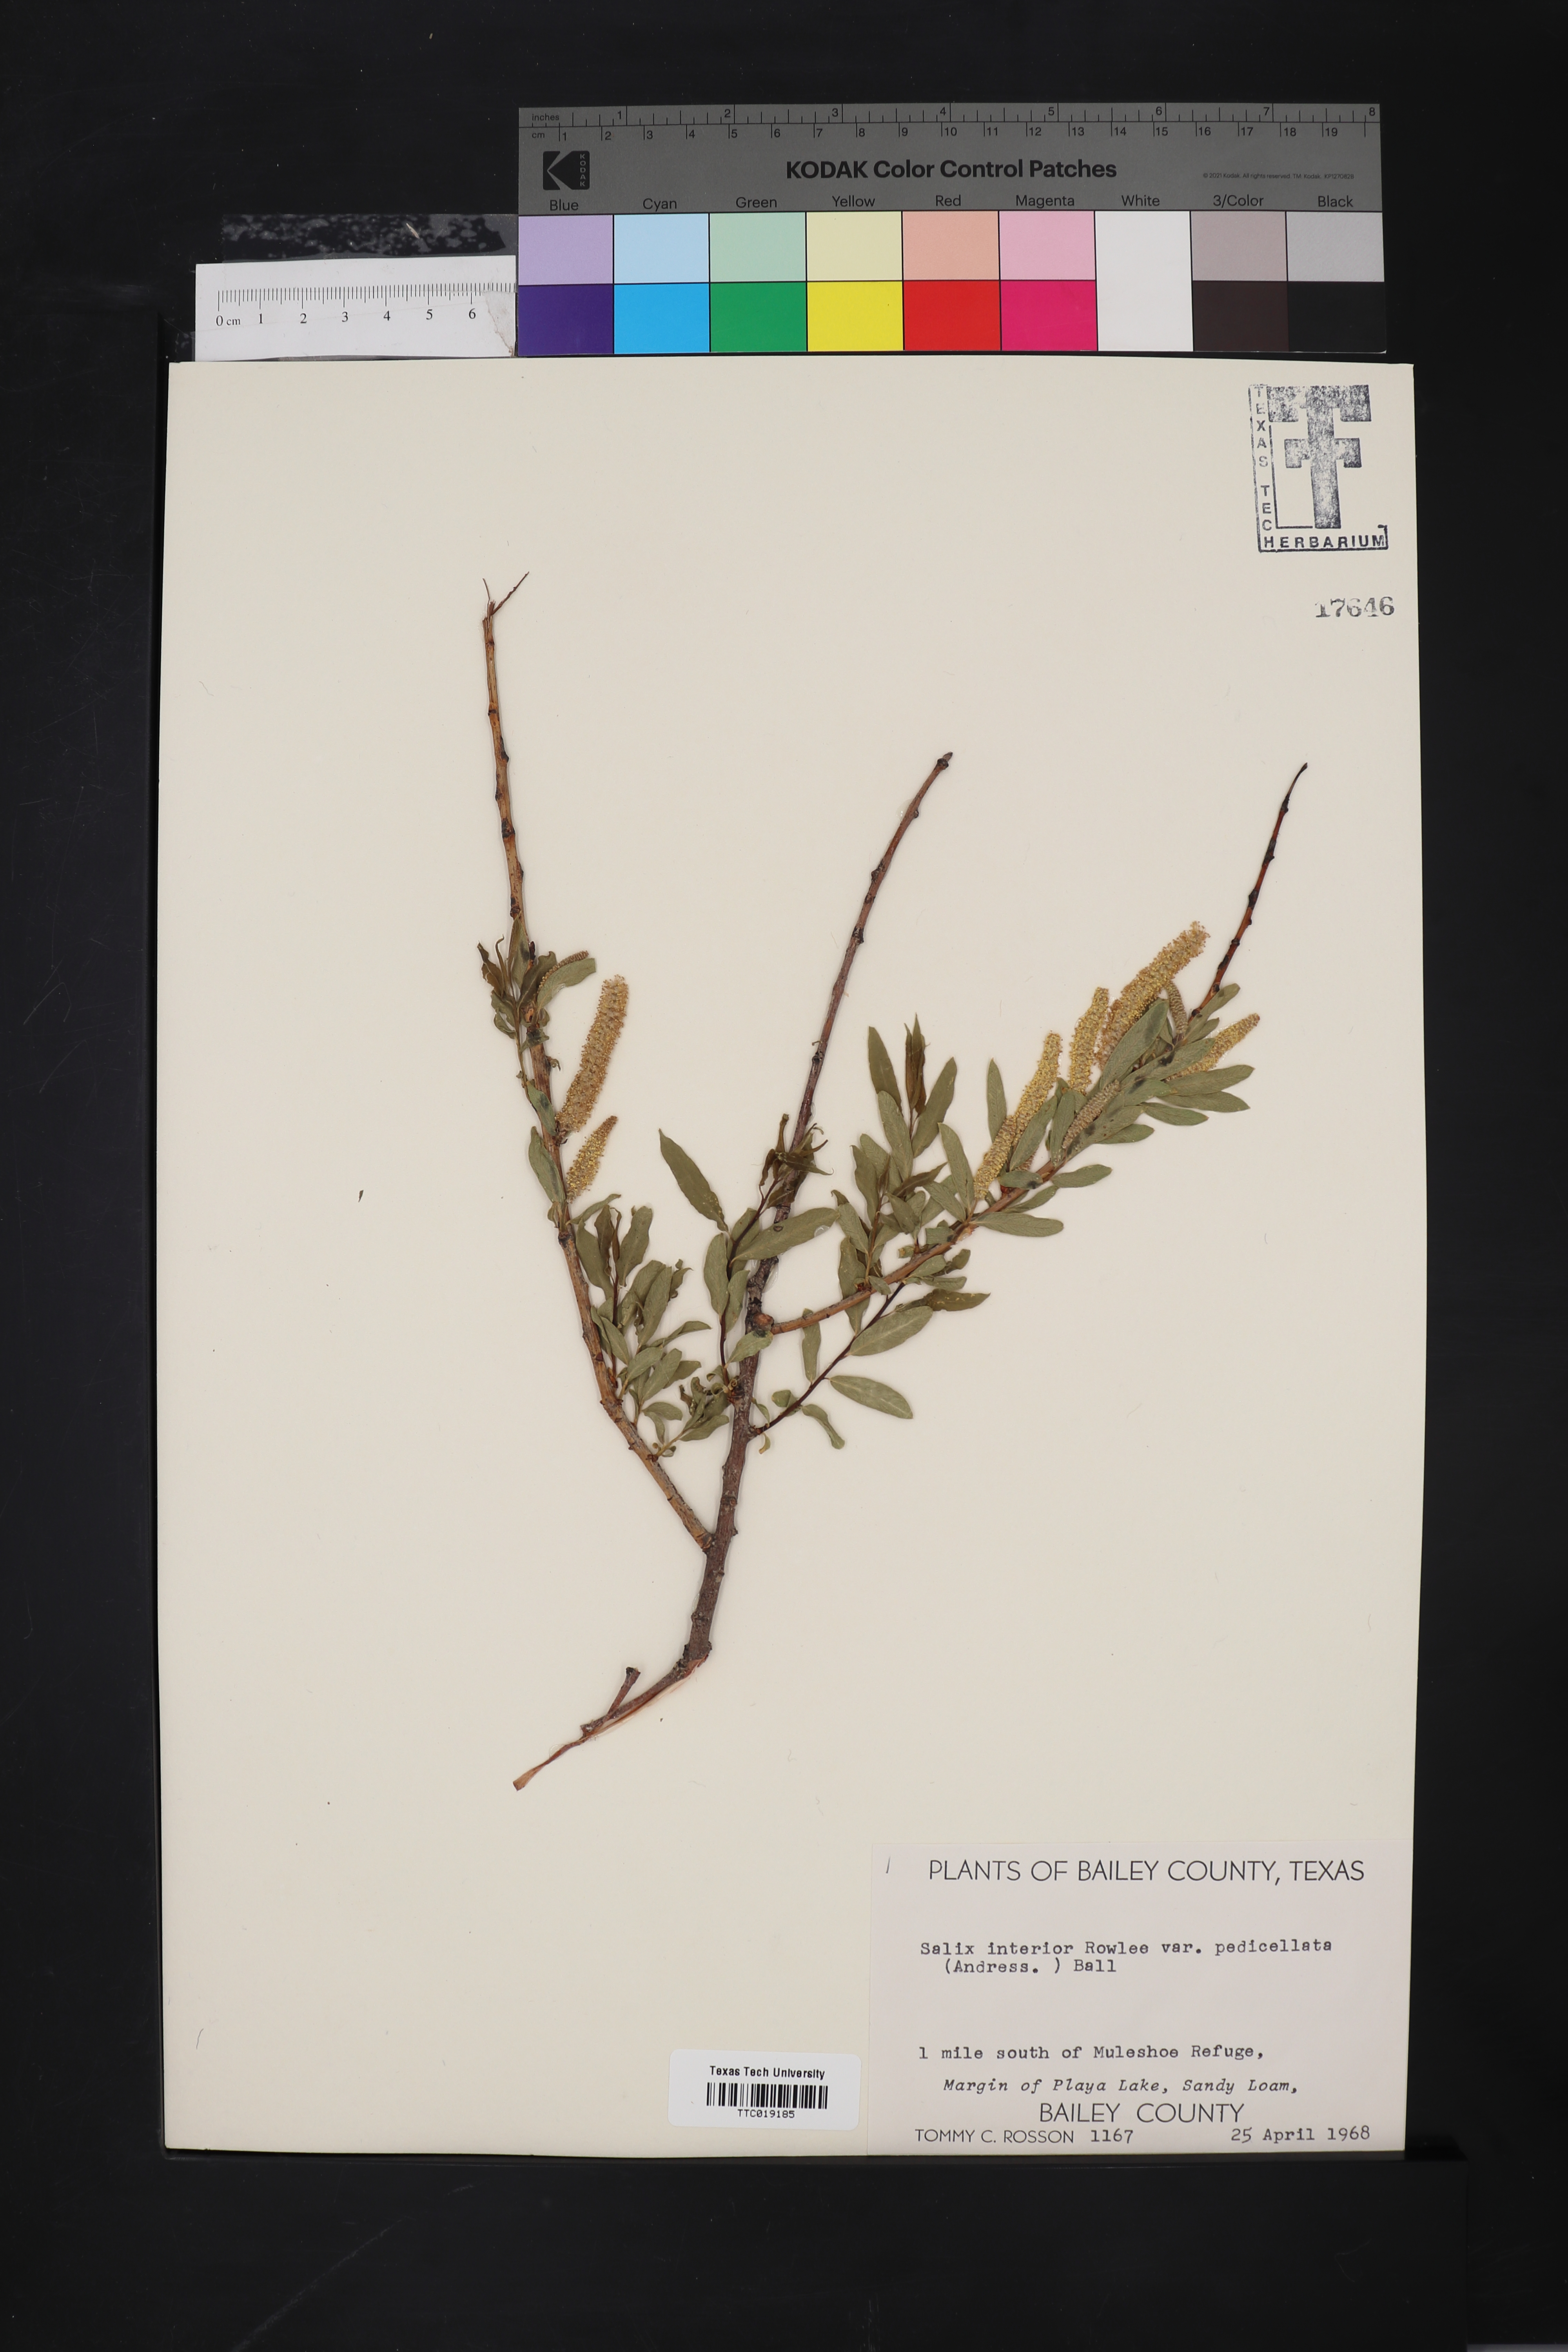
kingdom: Plantae
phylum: Tracheophyta
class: Magnoliopsida
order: Malpighiales
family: Salicaceae
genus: Salix
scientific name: Salix interior
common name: Sandbar willow
